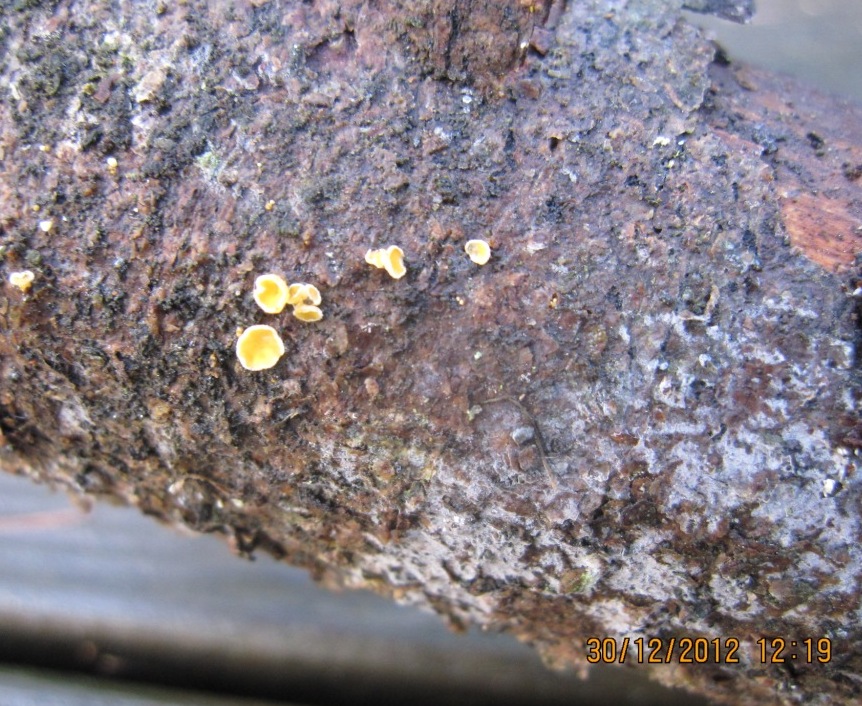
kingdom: Fungi
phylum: Ascomycota
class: Leotiomycetes
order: Helotiales
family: Lachnaceae
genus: Lachnellula
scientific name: Lachnellula subtilissima
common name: gran-frynseskive
